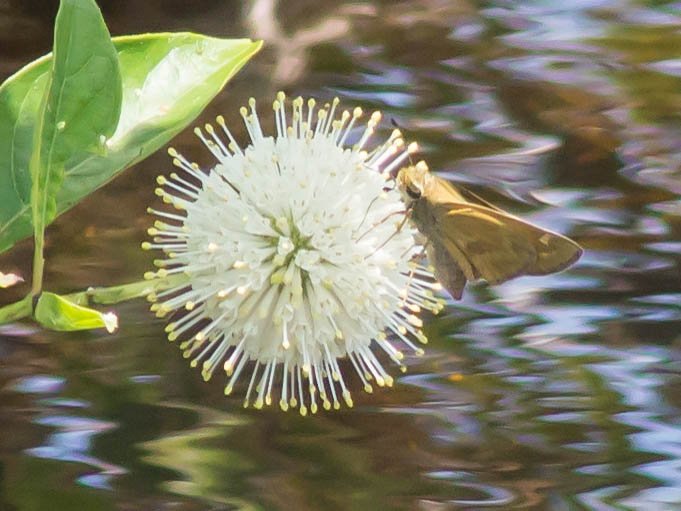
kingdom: Animalia
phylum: Arthropoda
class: Insecta
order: Lepidoptera
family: Hesperiidae
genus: Atalopedes
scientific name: Atalopedes campestris
